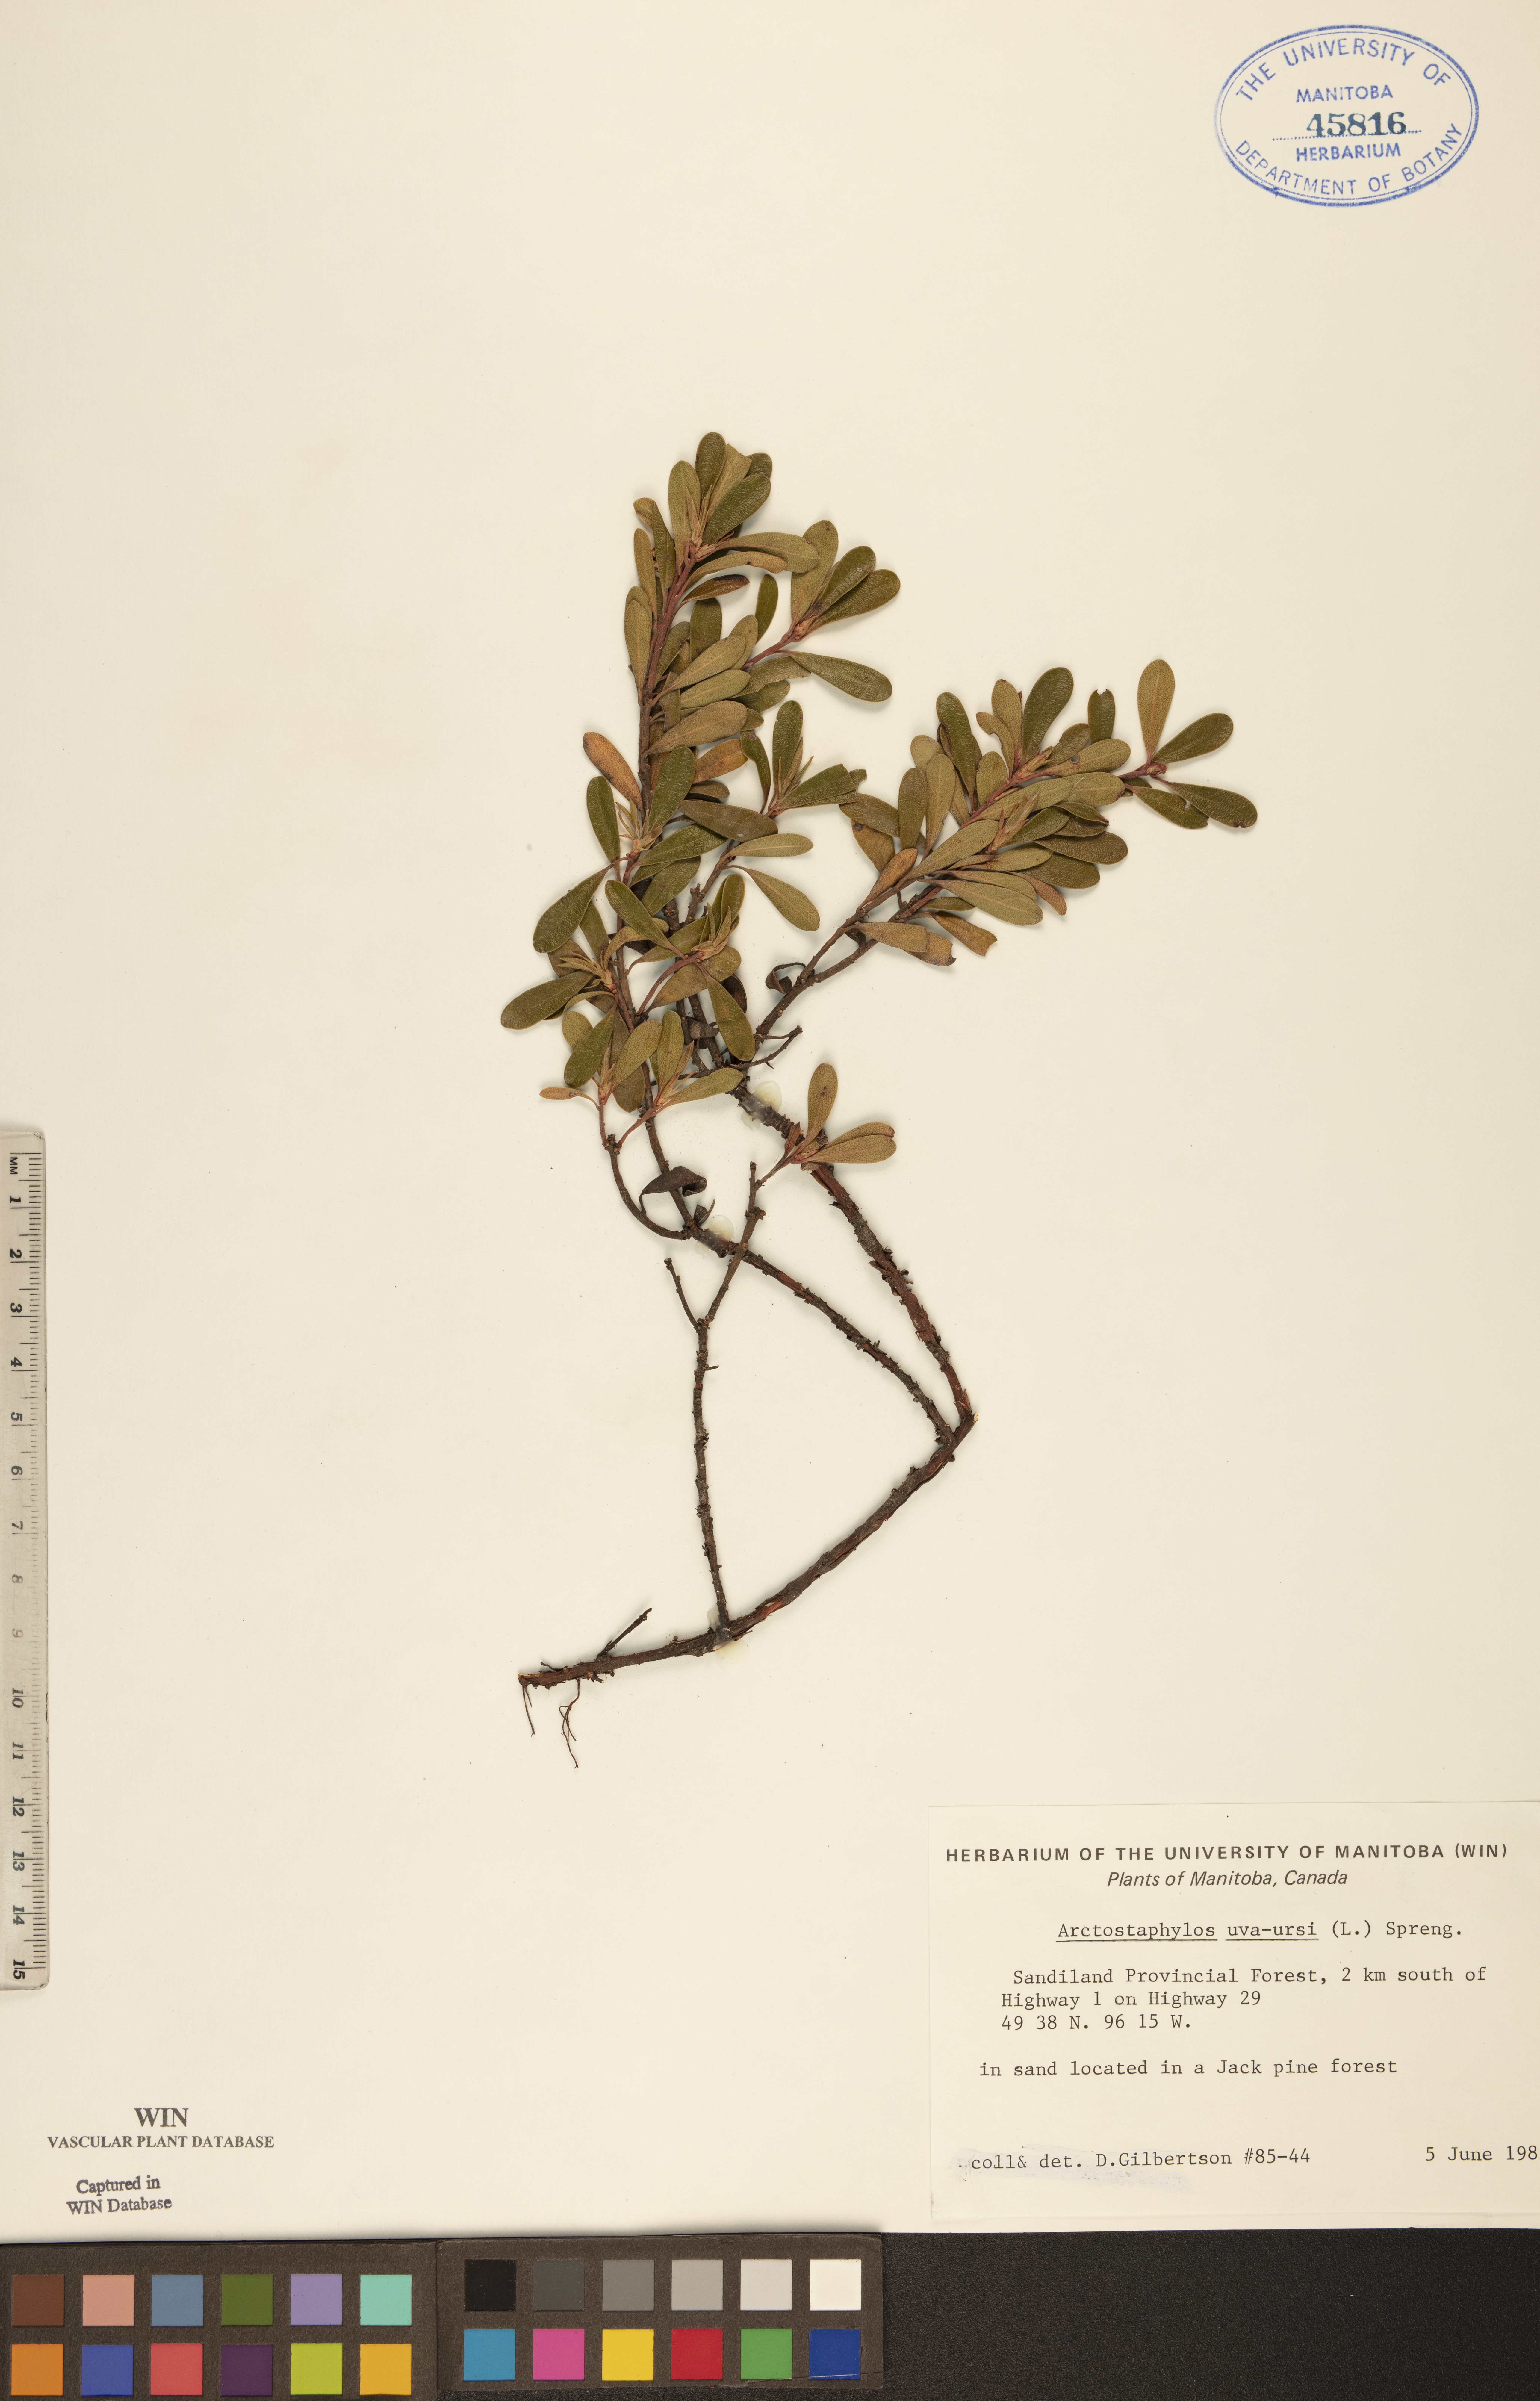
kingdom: Plantae
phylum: Tracheophyta
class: Magnoliopsida
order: Ericales
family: Ericaceae
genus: Arctostaphylos
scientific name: Arctostaphylos uva-ursi
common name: Bearberry
